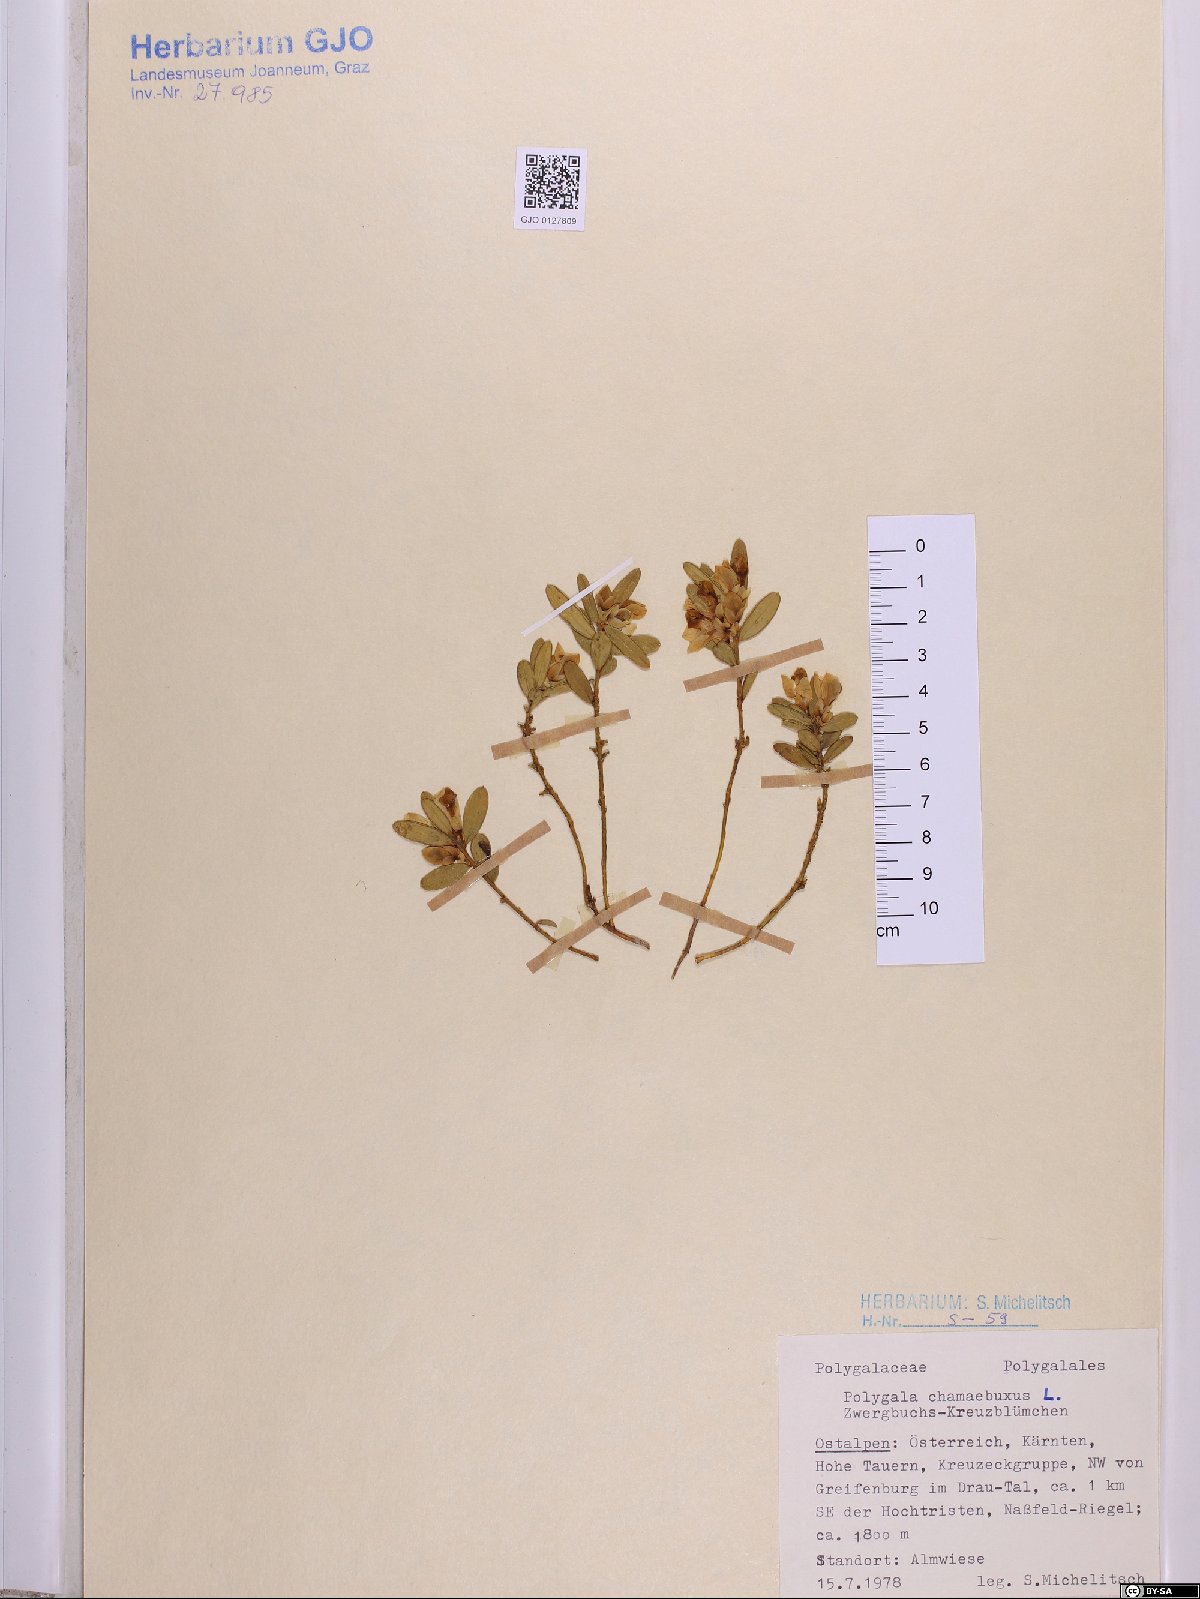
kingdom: Plantae
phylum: Tracheophyta
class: Magnoliopsida
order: Fabales
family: Polygalaceae
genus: Polygaloides
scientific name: Polygaloides chamaebuxus
